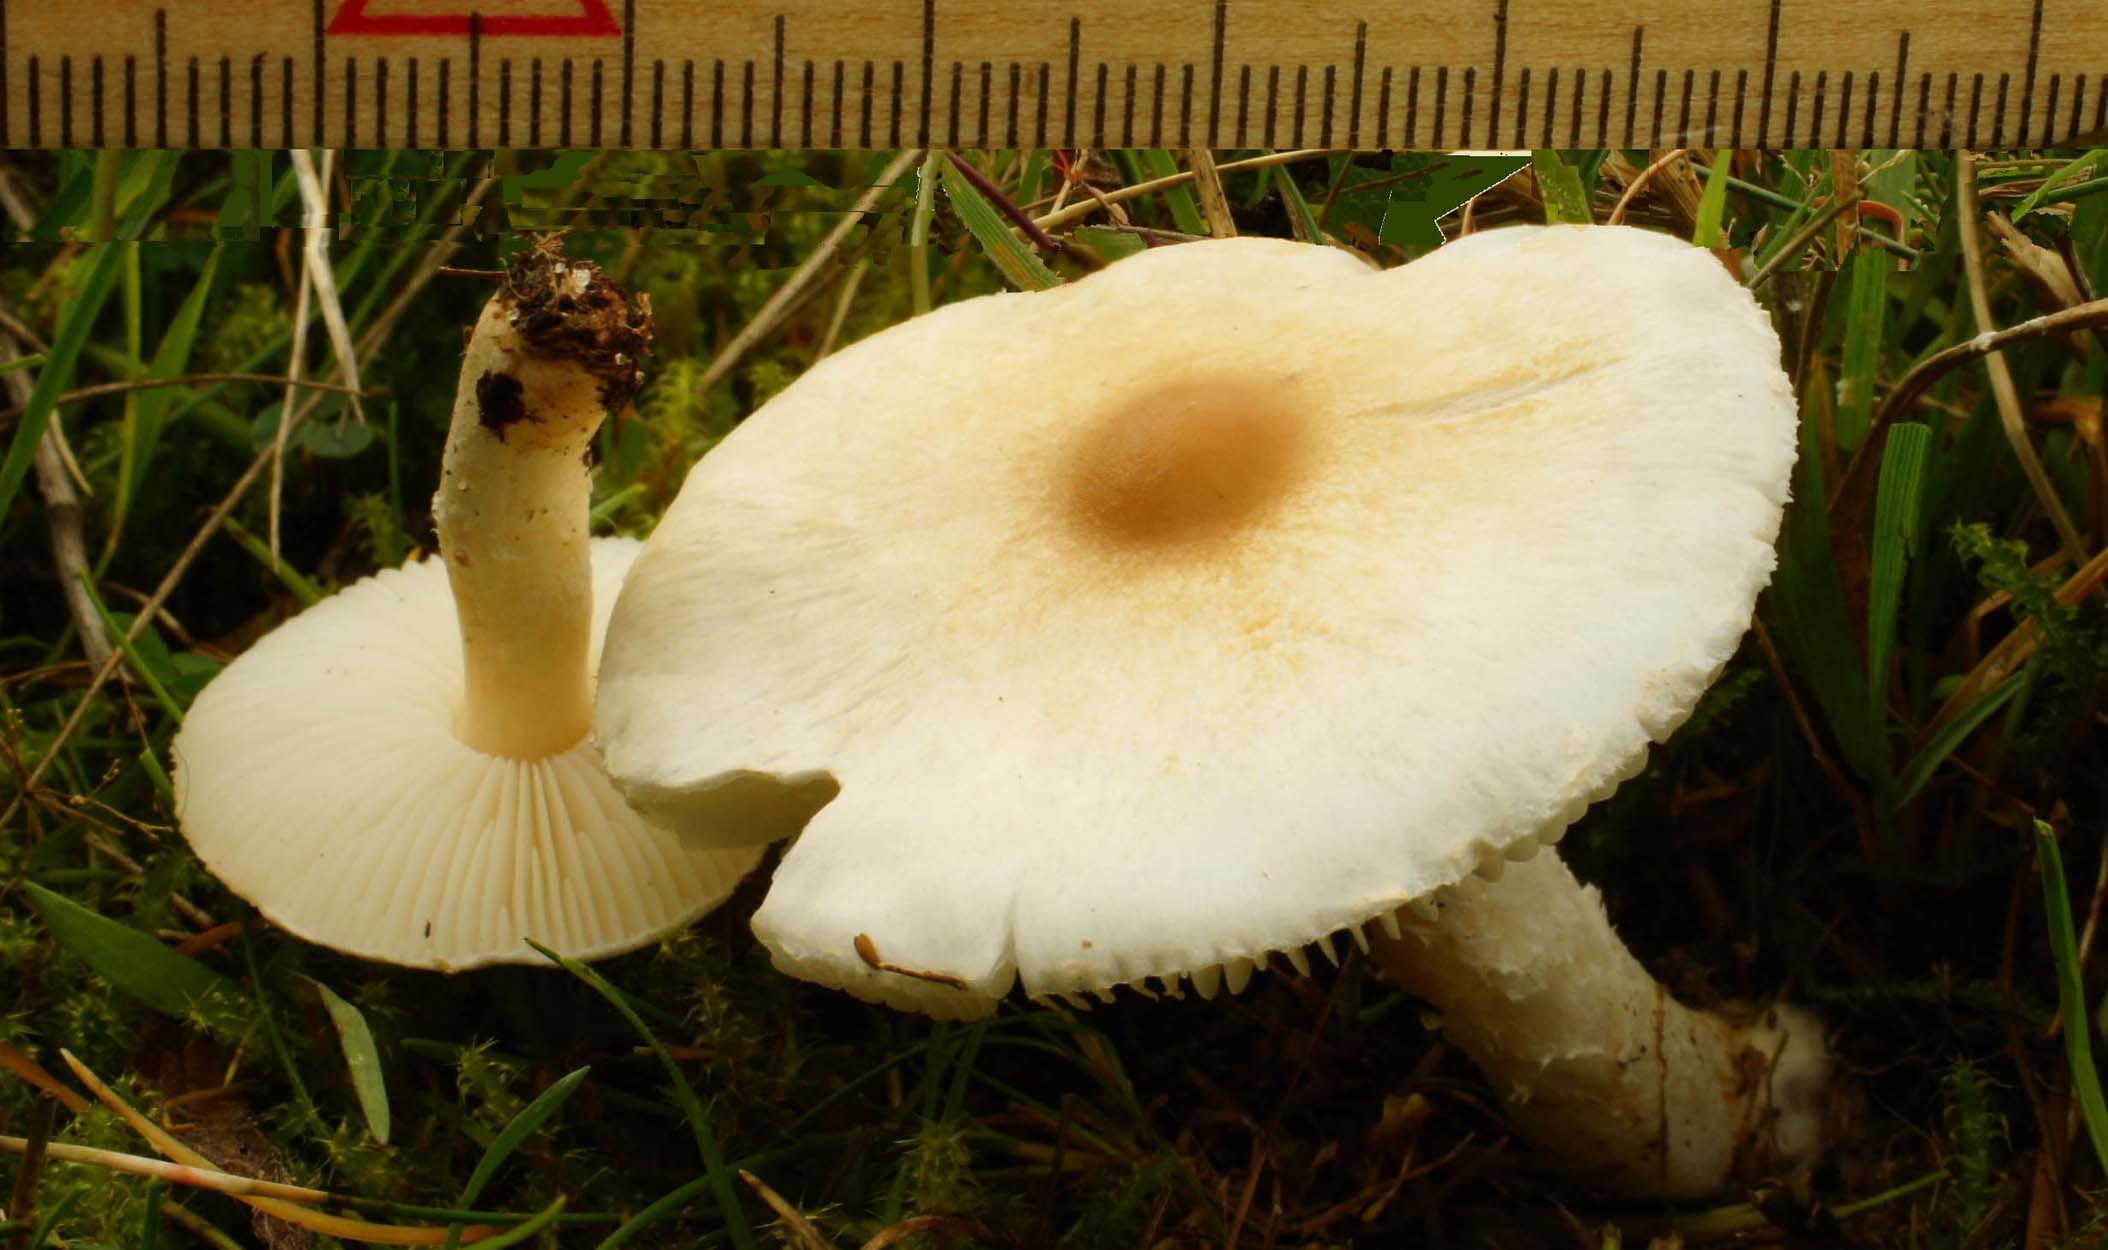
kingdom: Fungi
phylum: Basidiomycota
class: Agaricomycetes
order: Agaricales
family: Agaricaceae
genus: Lepiota
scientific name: Lepiota erminea
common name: hvid parasolhat
